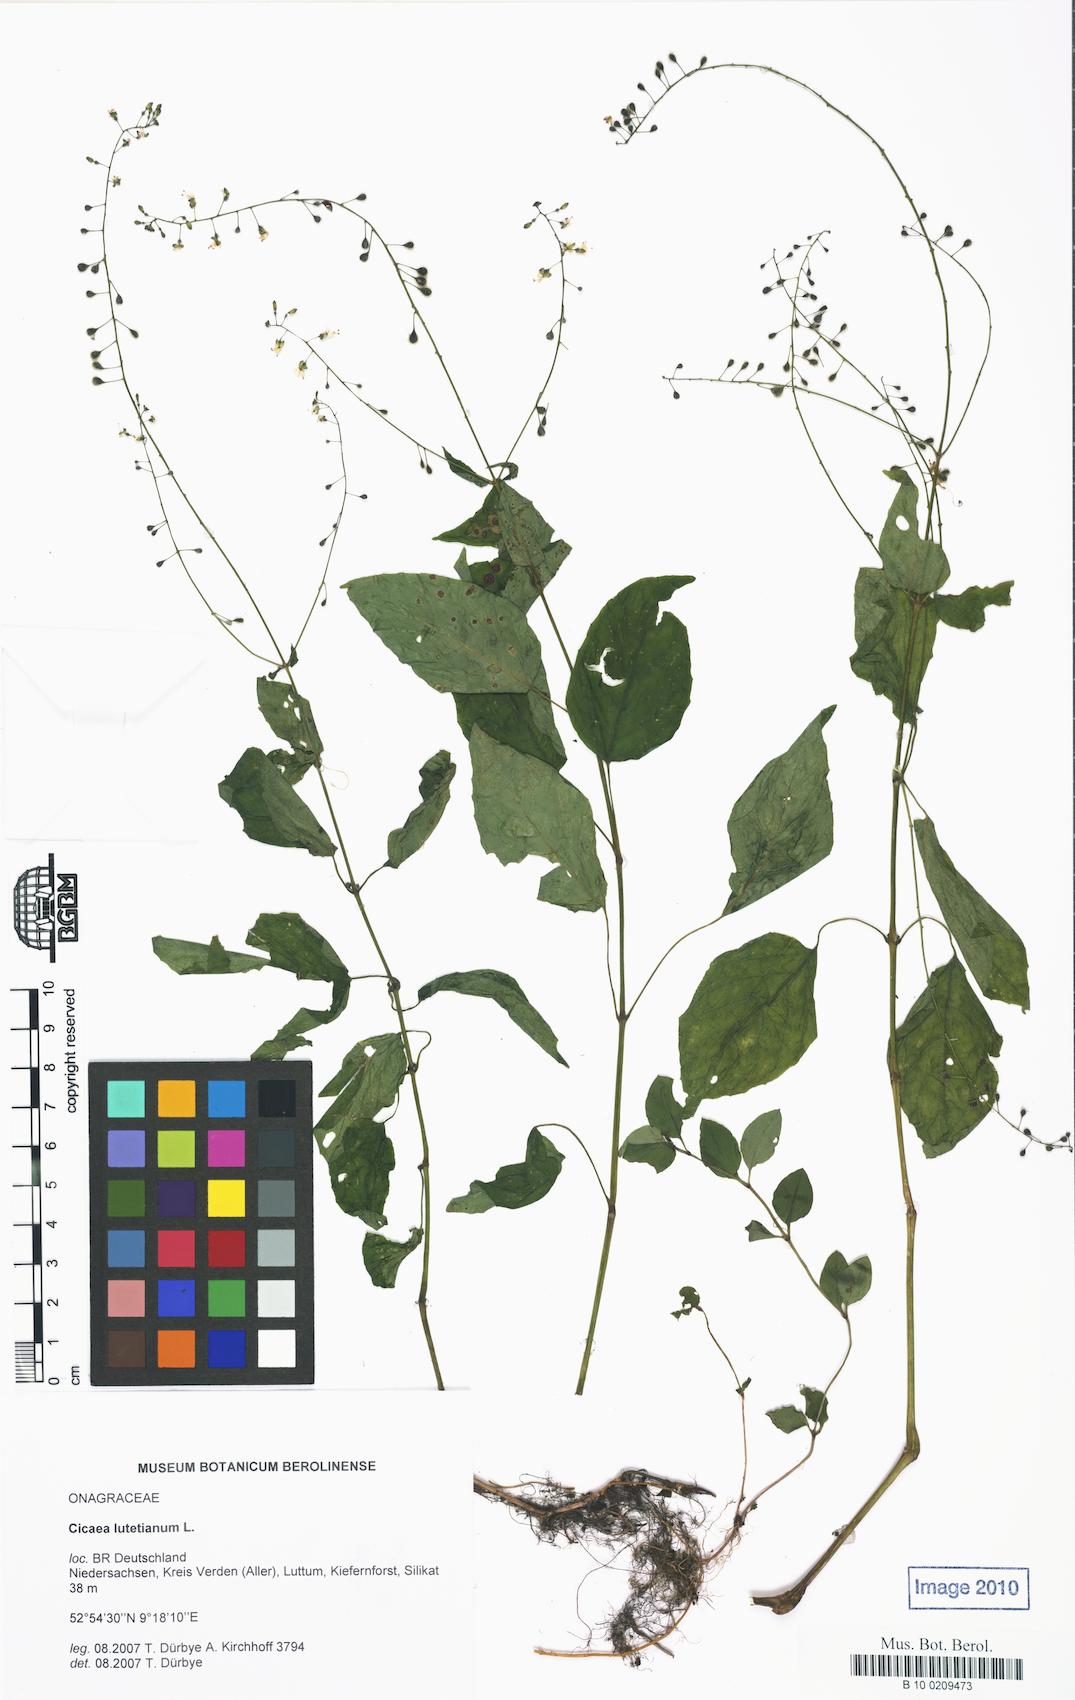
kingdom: Plantae
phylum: Tracheophyta
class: Magnoliopsida
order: Myrtales
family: Onagraceae
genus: Circaea
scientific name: Circaea lutetiana
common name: Enchanter's-nightshade
